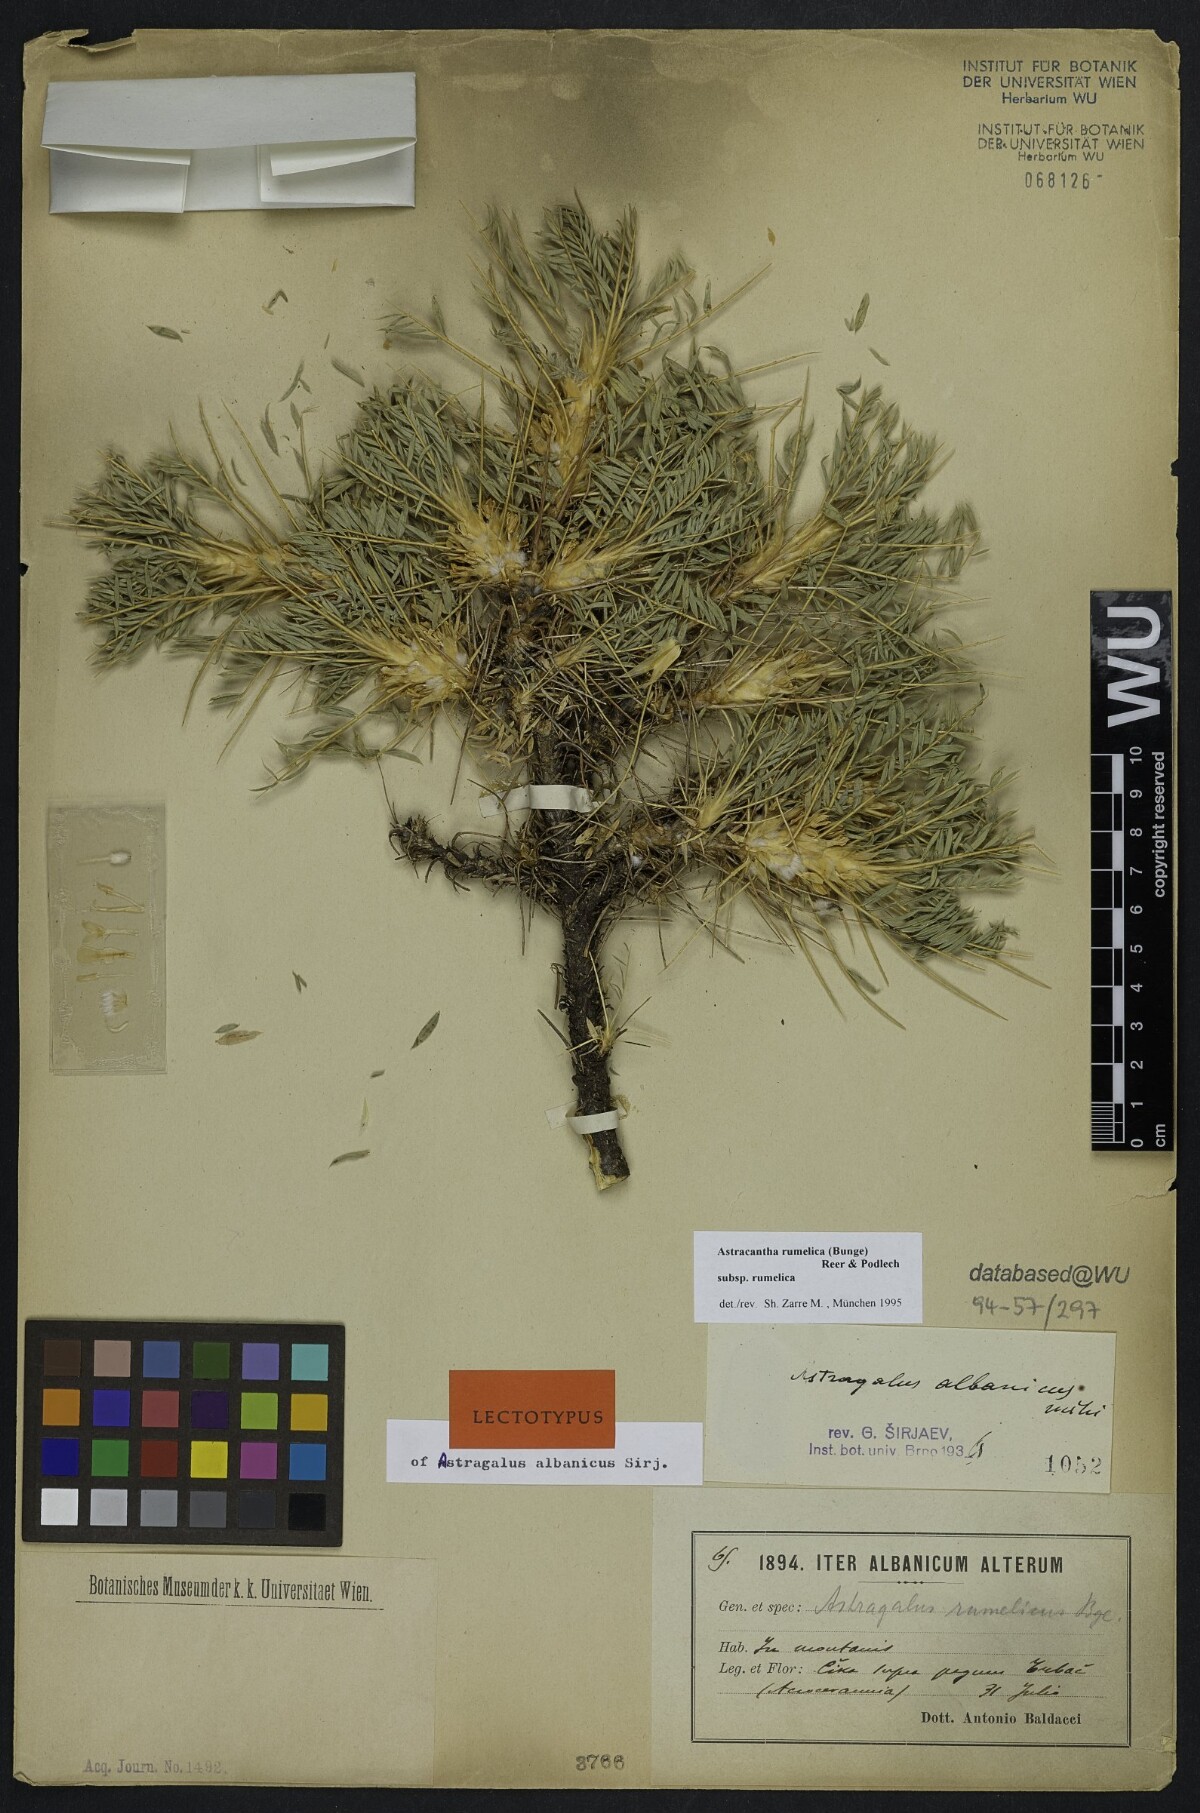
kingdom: Plantae
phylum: Tracheophyta
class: Magnoliopsida
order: Fabales
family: Fabaceae
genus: Astragalus
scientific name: Astragalus rumelicus
